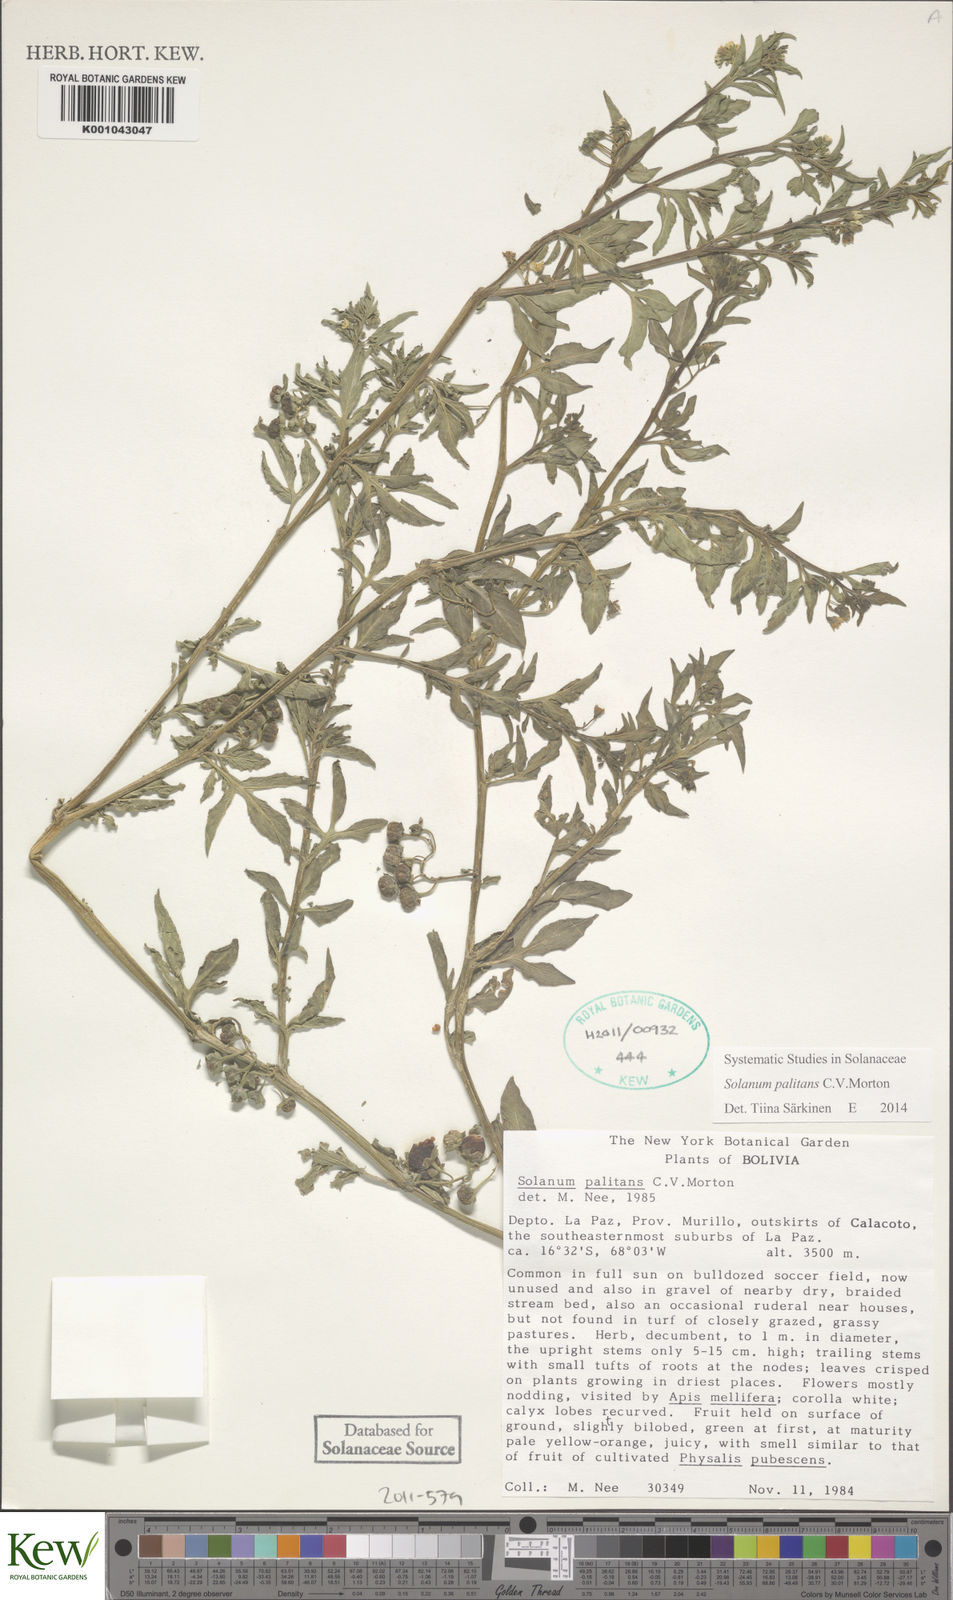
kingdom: Plantae
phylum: Tracheophyta
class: Magnoliopsida
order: Solanales
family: Solanaceae
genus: Solanum
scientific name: Solanum palitans
